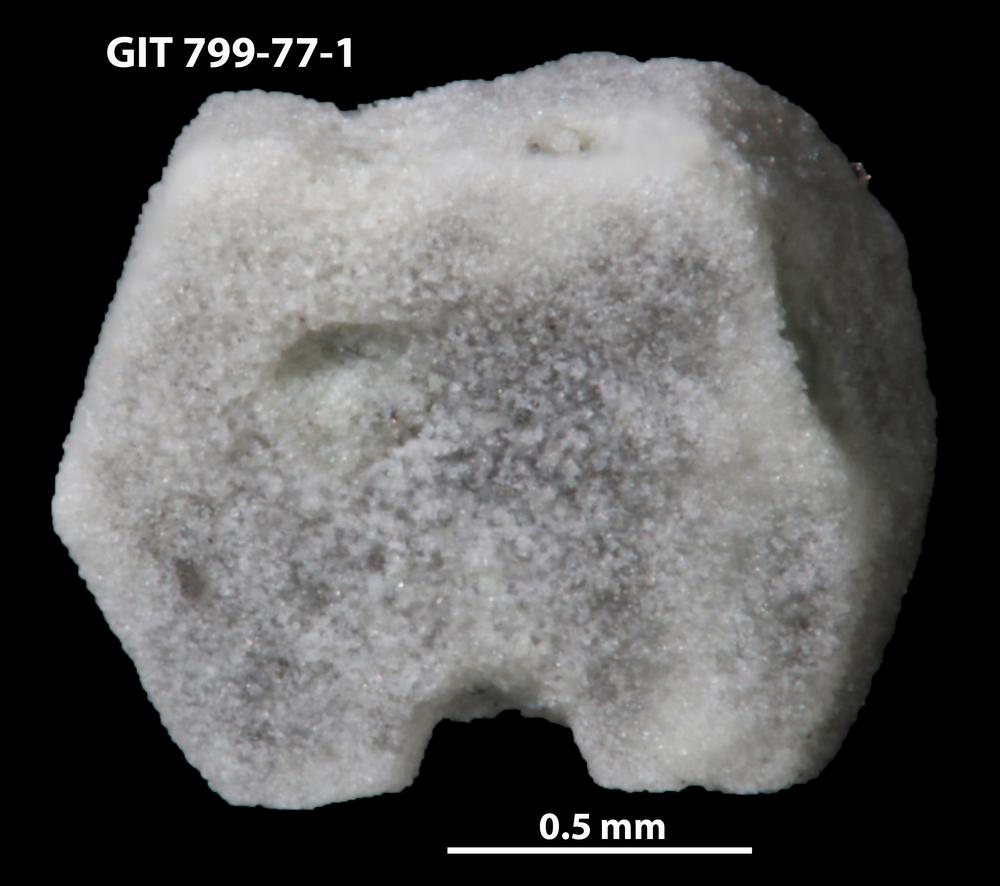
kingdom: Animalia
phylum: Echinodermata
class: Echinoidea
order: Bothriocidaroida
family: Bothriocidaridae
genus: Neobothriocidaris
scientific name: Neobothriocidaris
